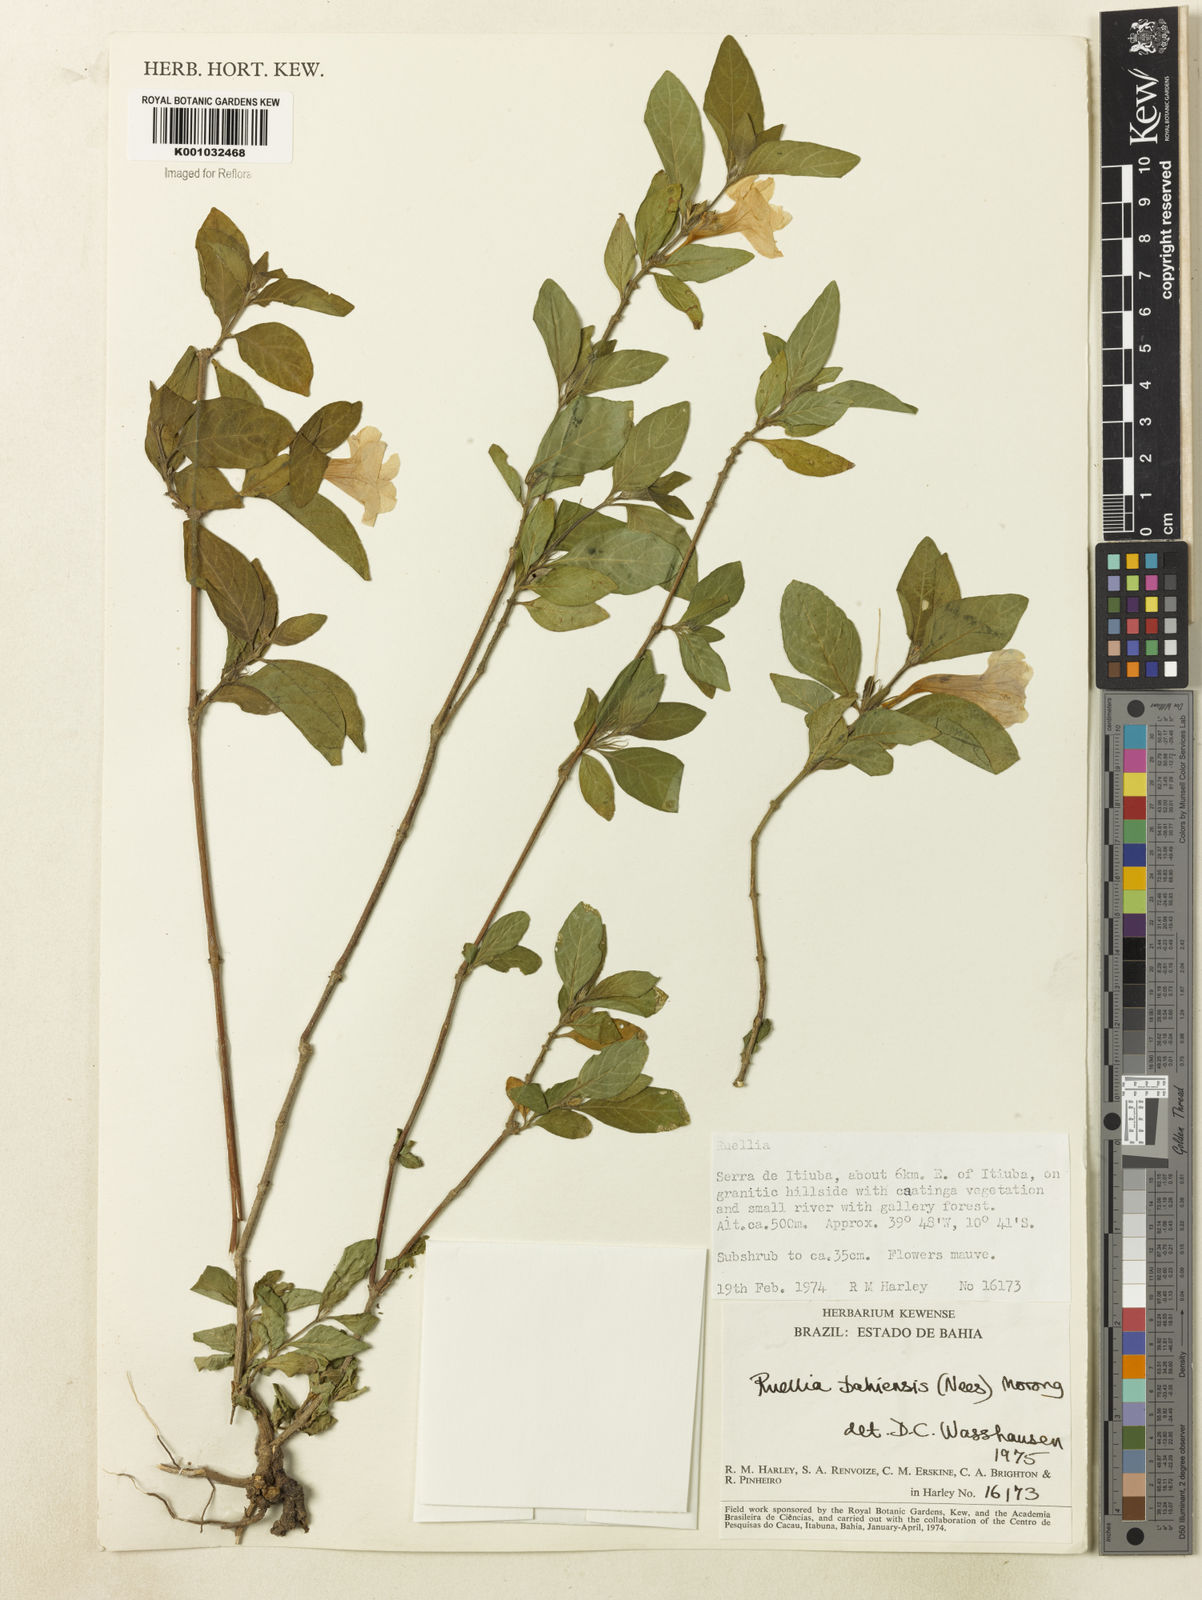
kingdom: Plantae
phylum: Tracheophyta
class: Magnoliopsida
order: Lamiales
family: Acanthaceae
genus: Ruellia
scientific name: Ruellia bahiensis
